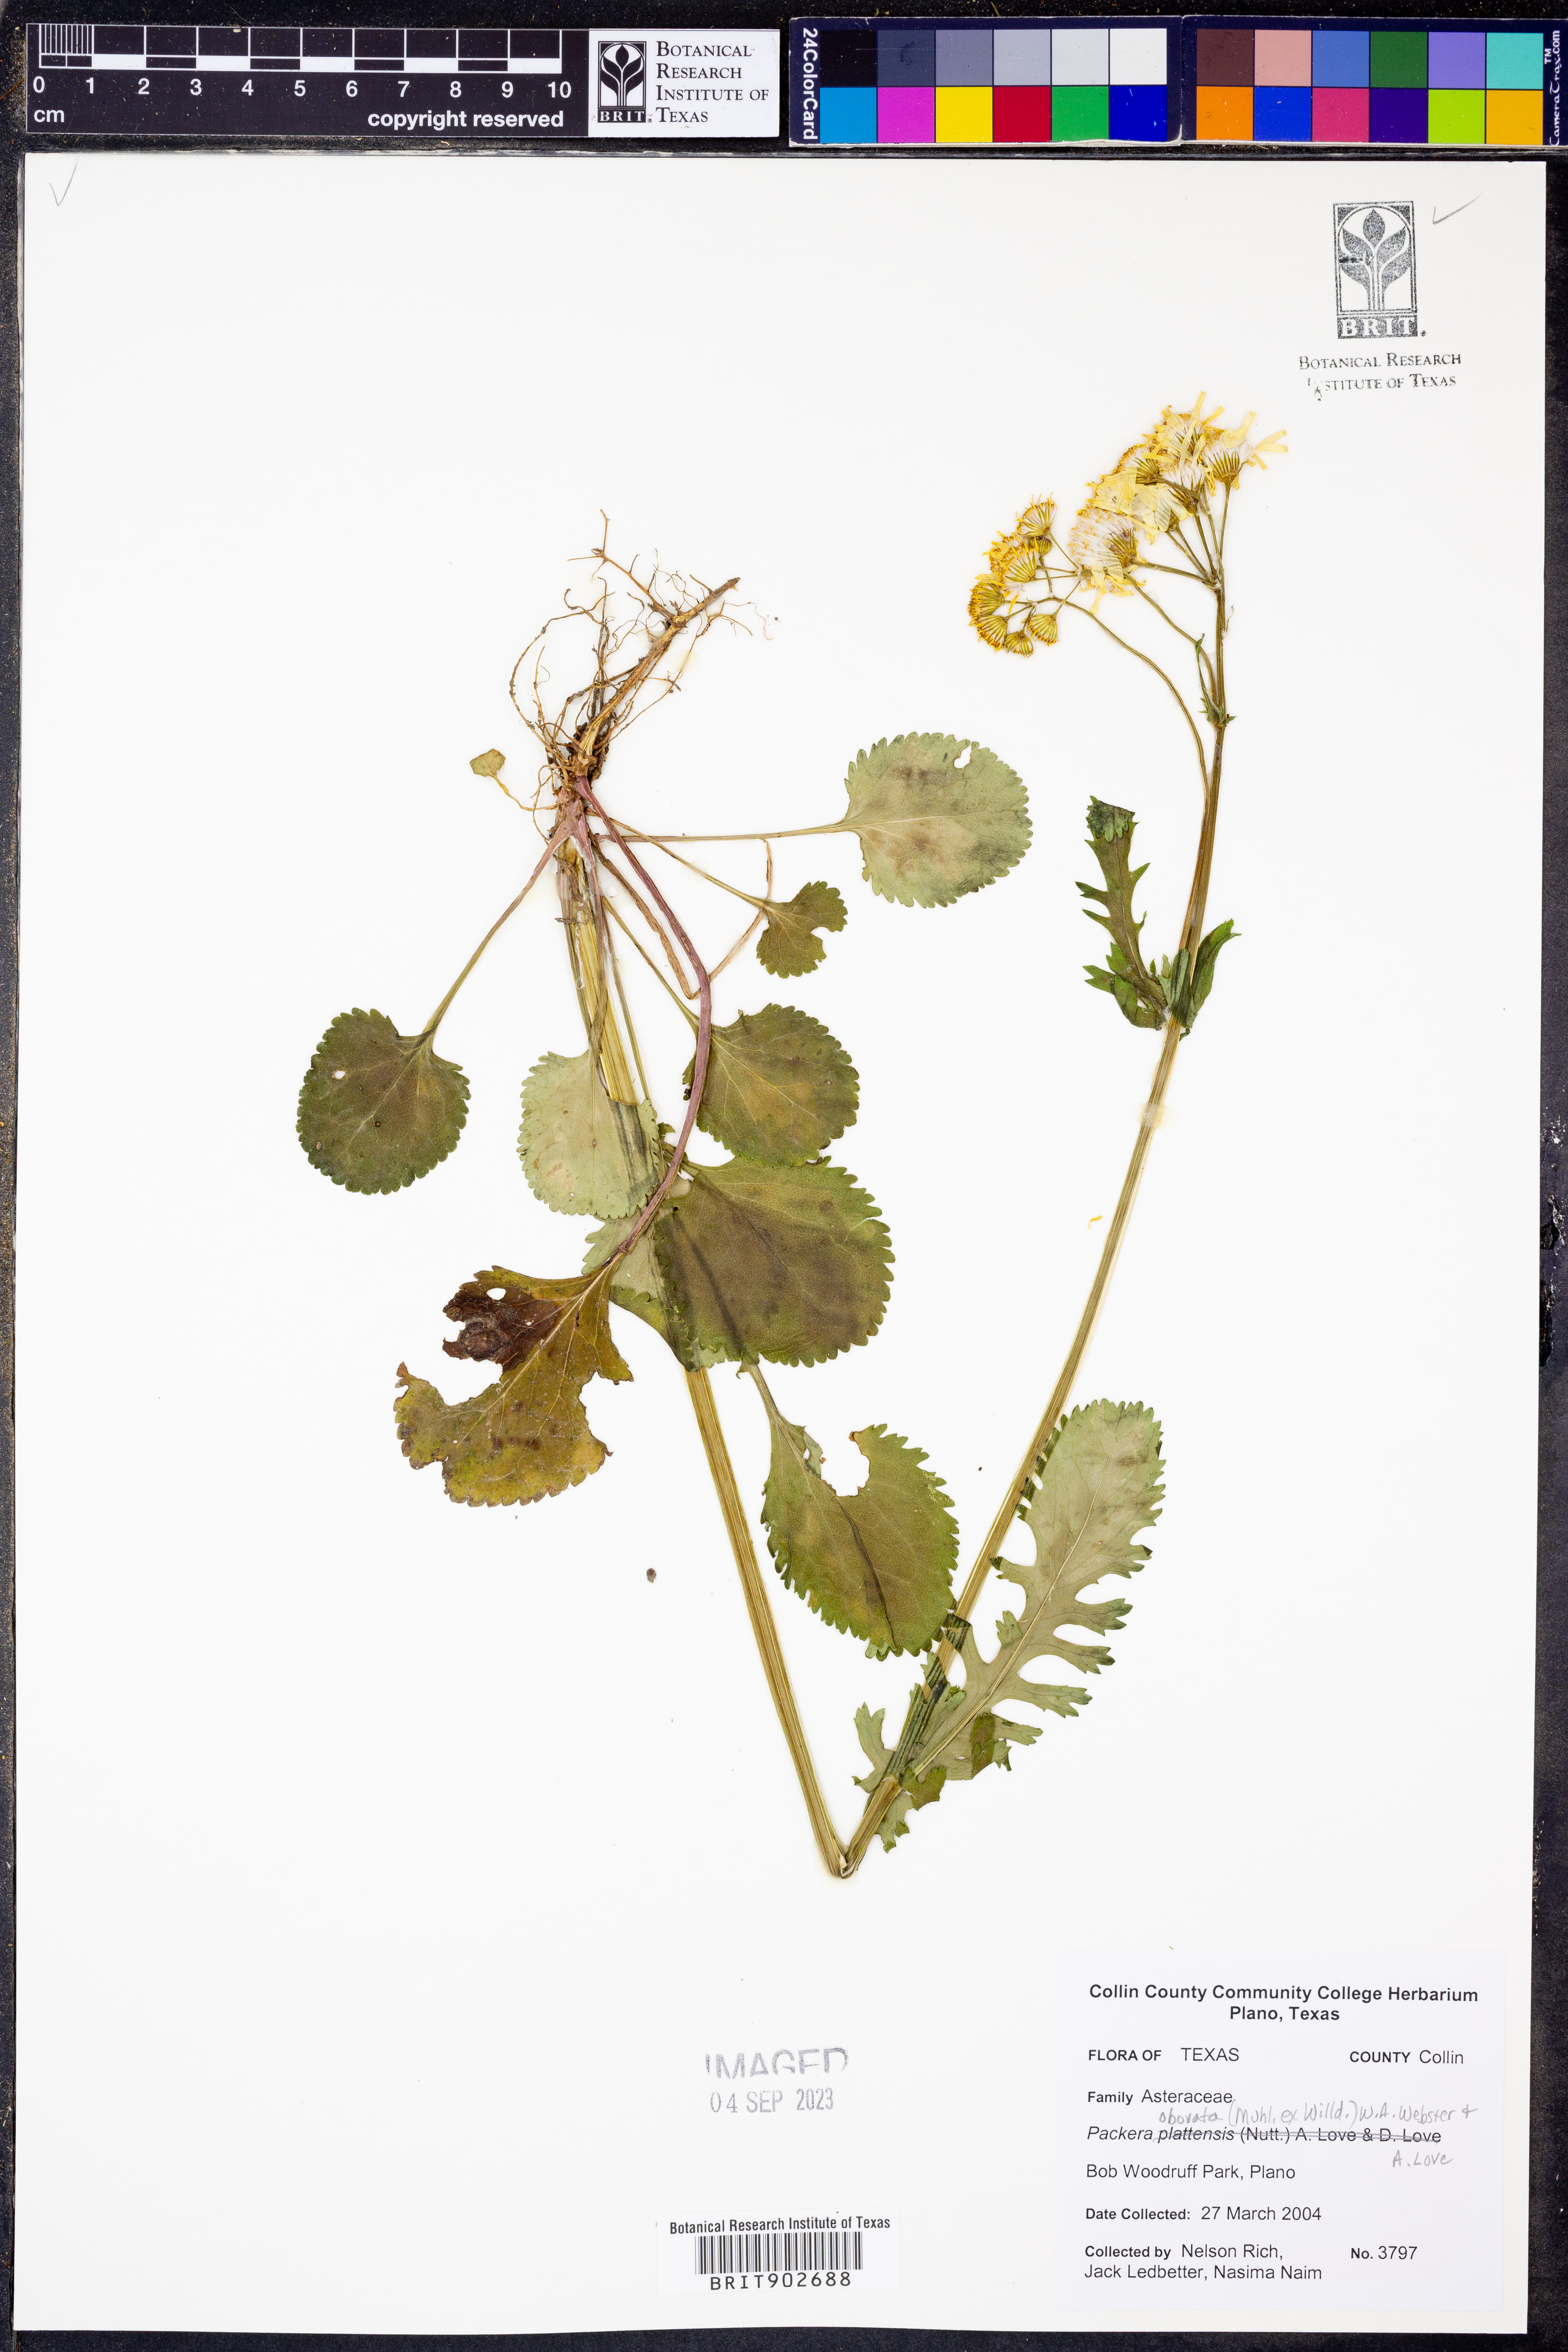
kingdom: Plantae
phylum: Tracheophyta
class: Magnoliopsida
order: Asterales
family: Asteraceae
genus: Packera
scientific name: Packera obovata
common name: Round-leaf ragwort
